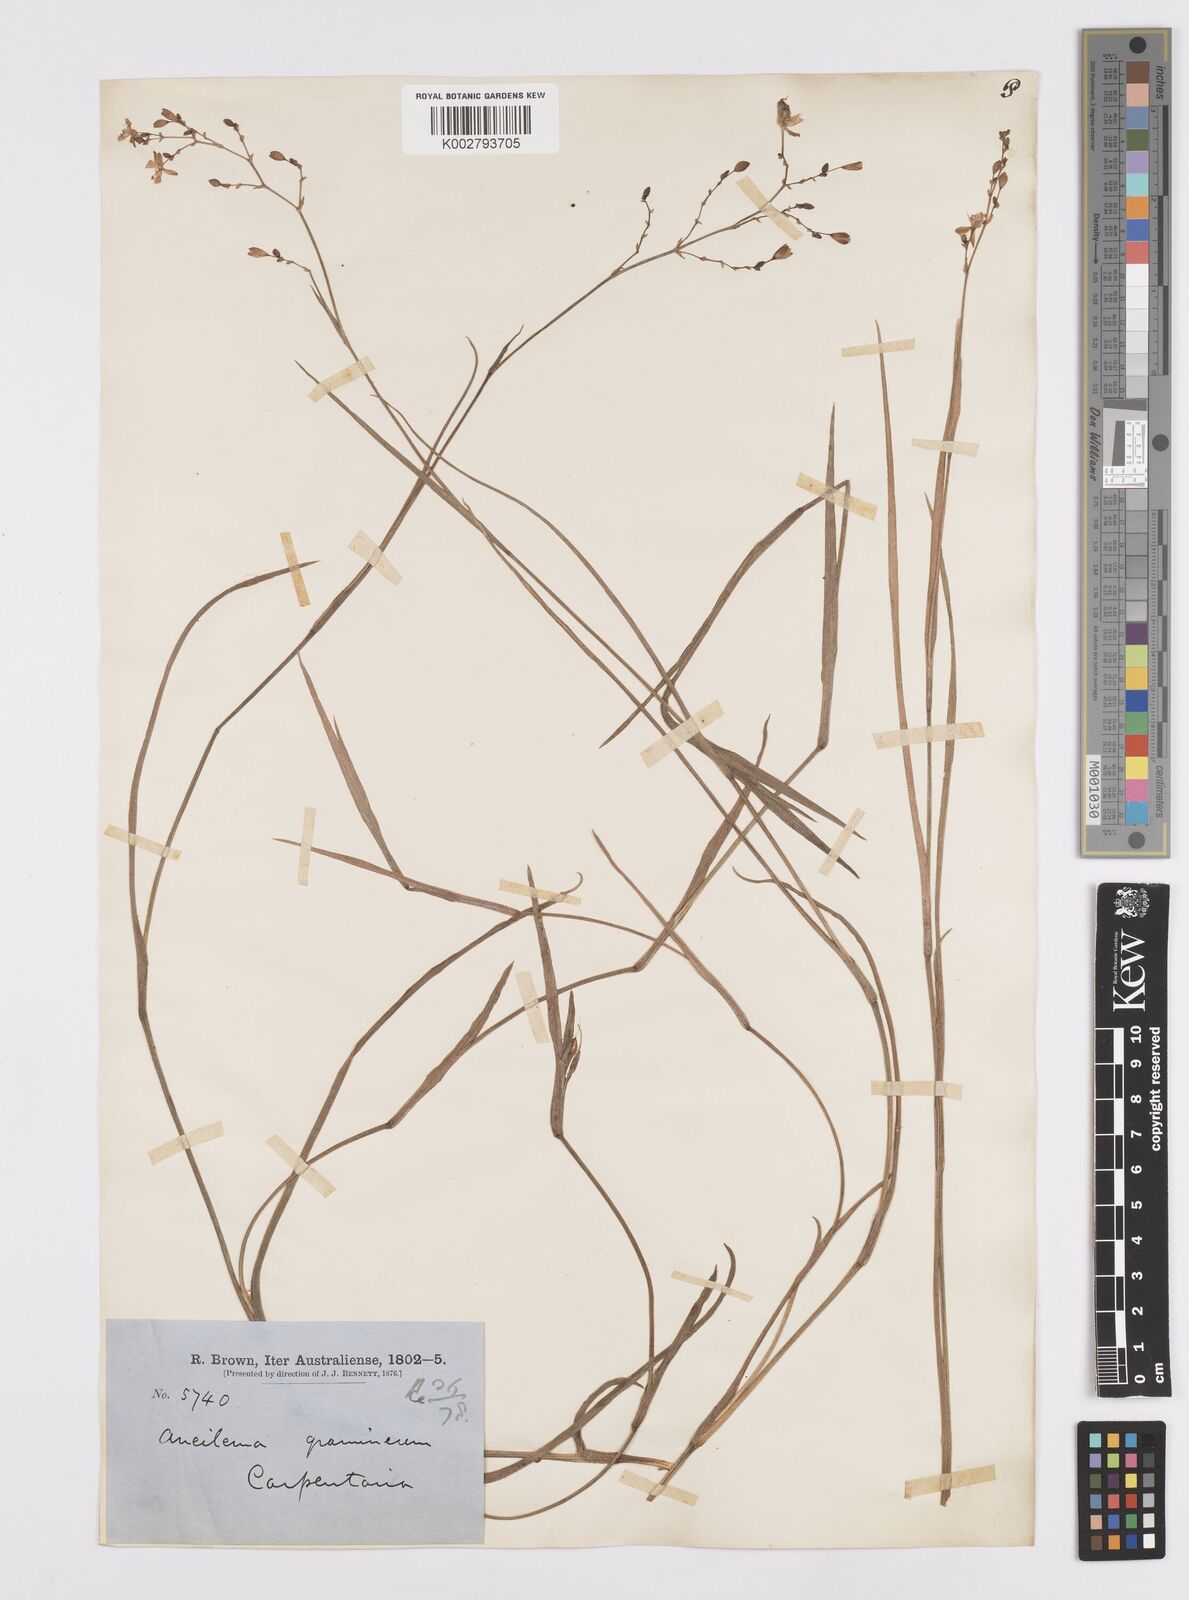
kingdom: Plantae
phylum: Tracheophyta
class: Liliopsida
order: Commelinales
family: Commelinaceae
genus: Murdannia
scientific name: Murdannia graminea
